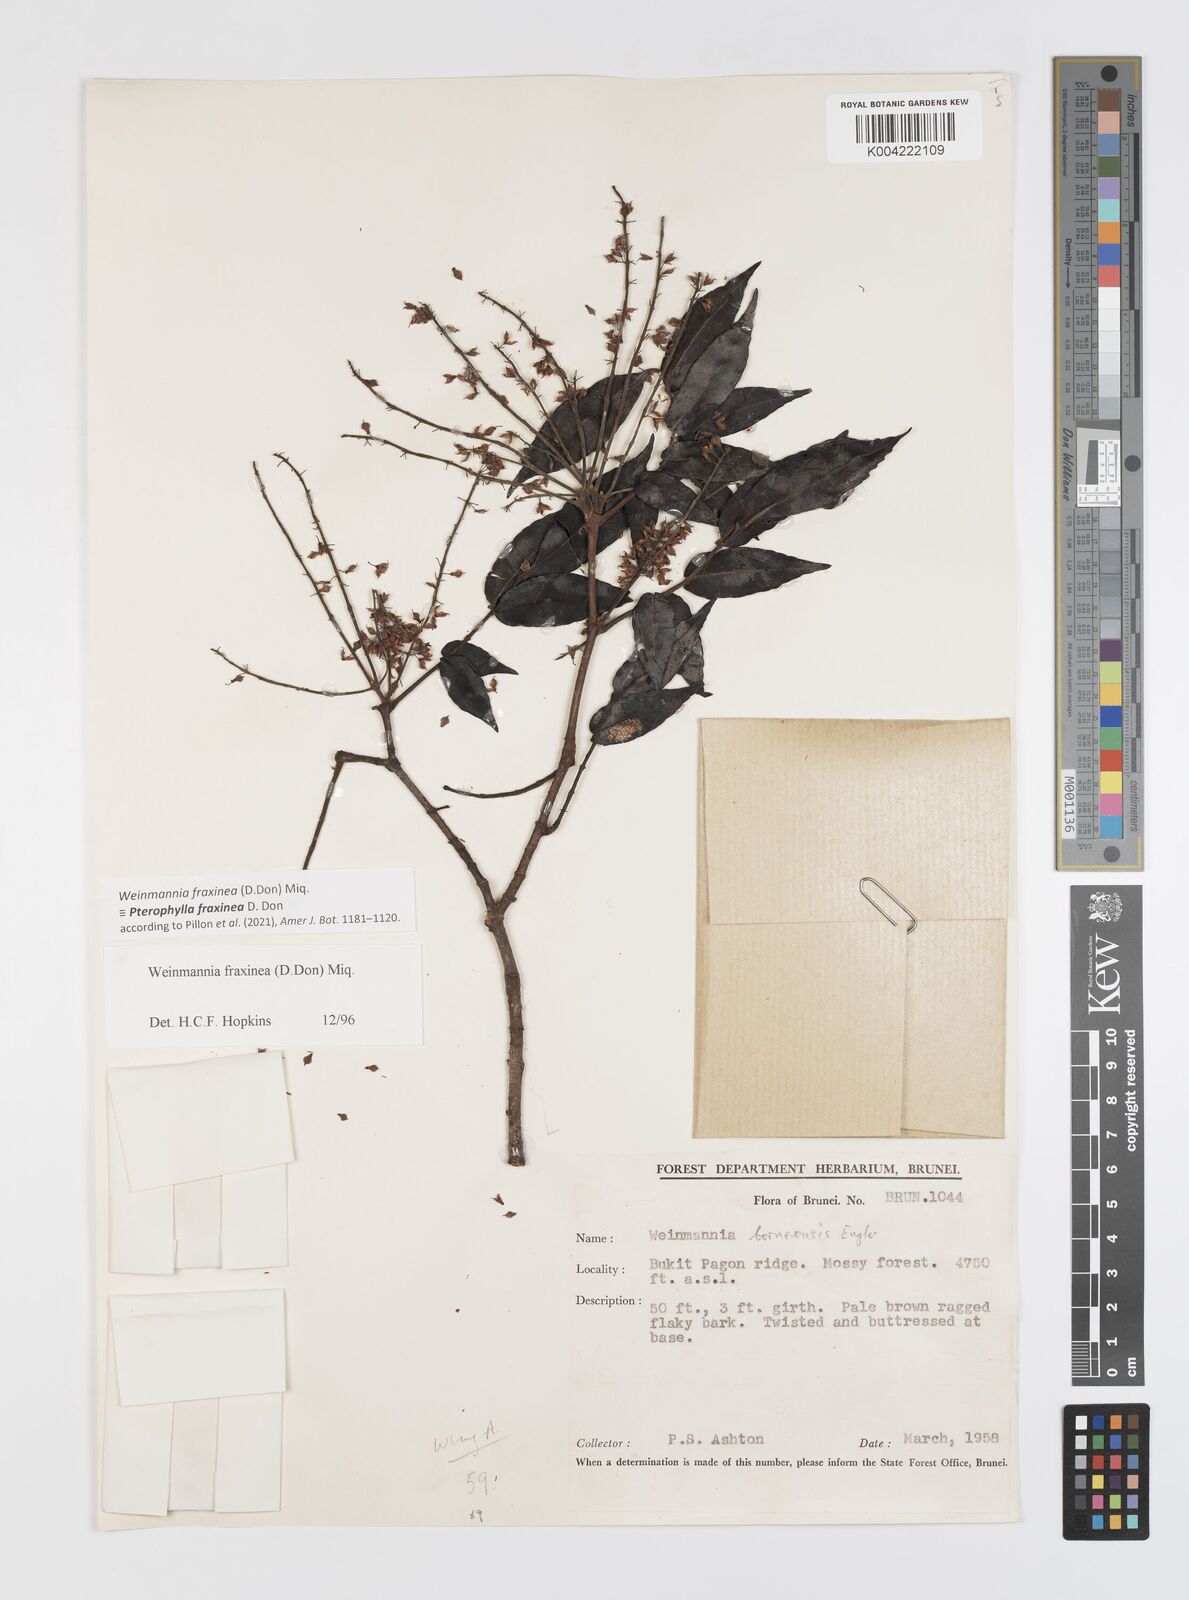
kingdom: Plantae
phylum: Tracheophyta
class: Magnoliopsida
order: Oxalidales
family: Cunoniaceae
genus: Pterophylla
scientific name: Pterophylla fraxinea
